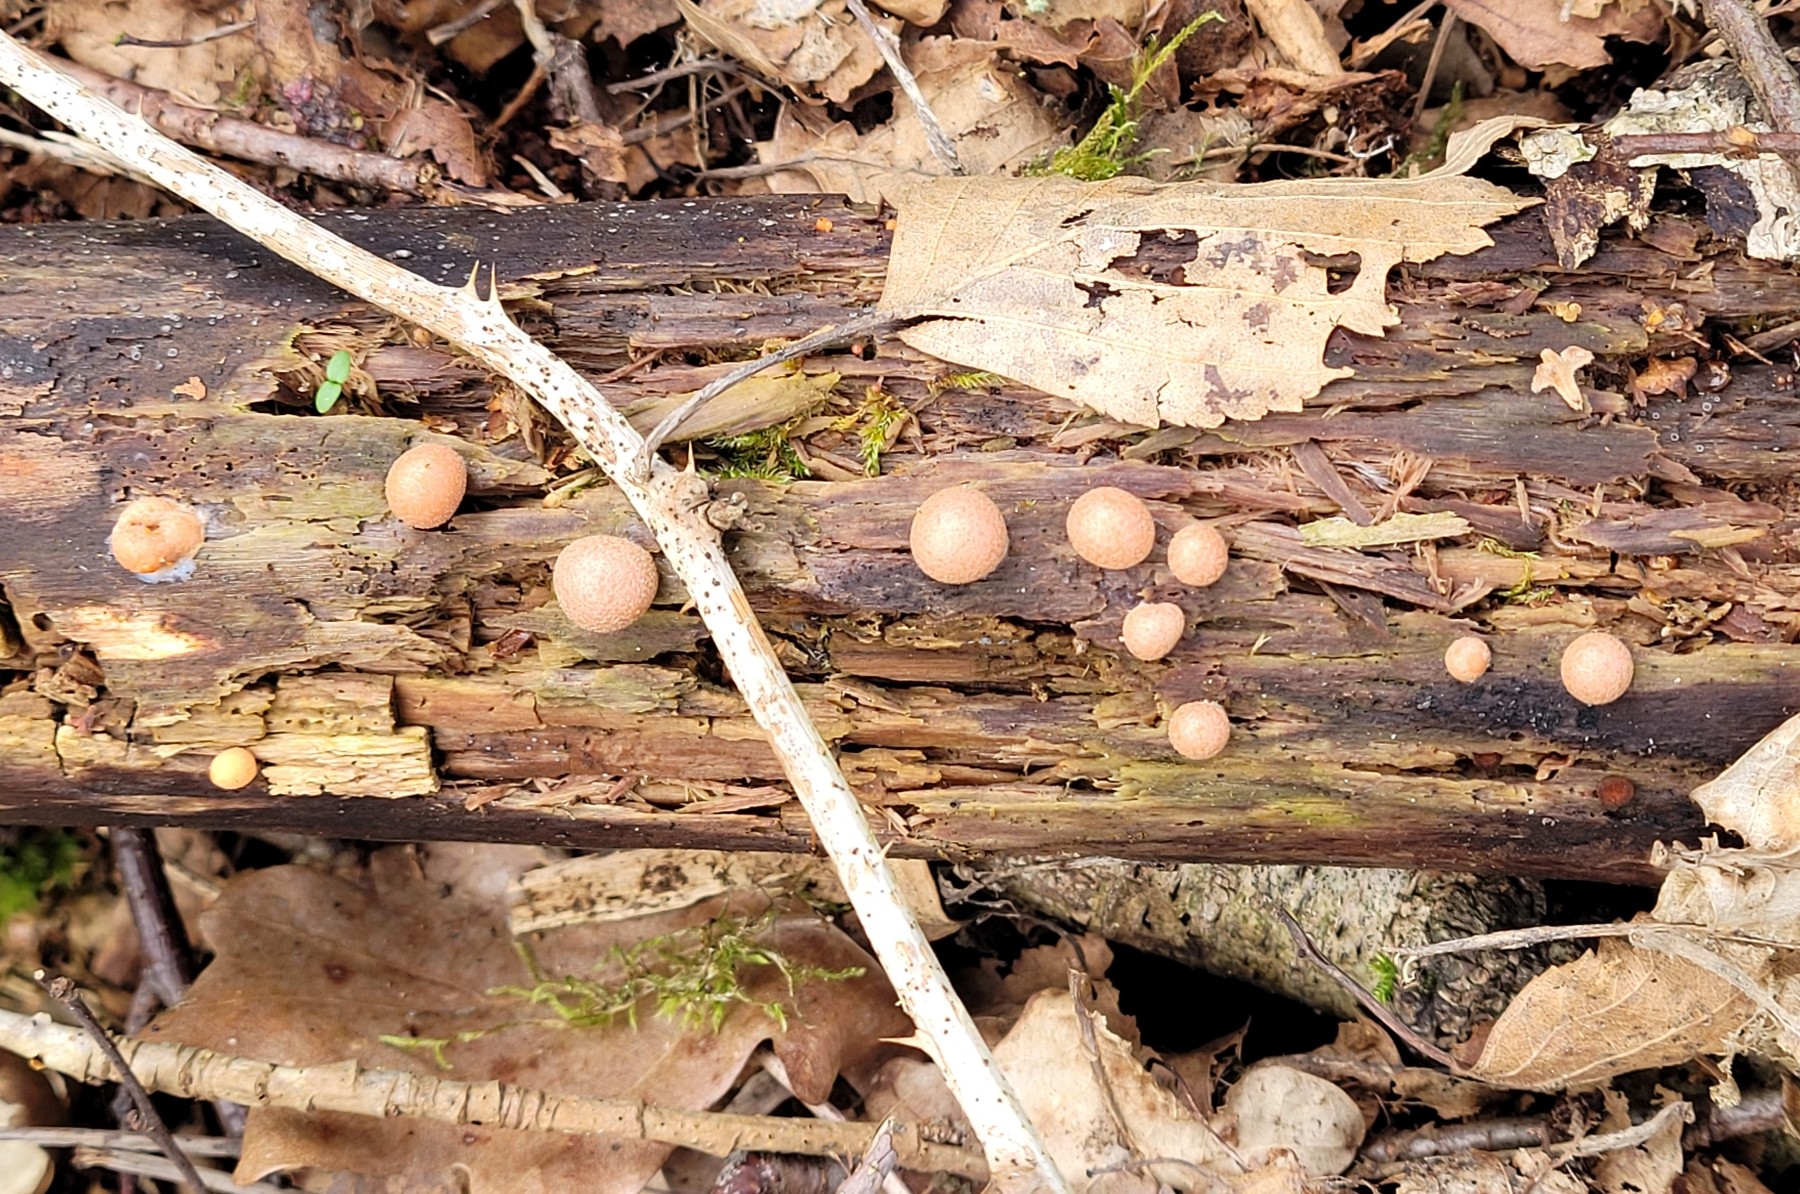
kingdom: Protozoa
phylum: Mycetozoa
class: Myxomycetes
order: Cribrariales
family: Tubiferaceae
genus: Lycogala
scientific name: Lycogala epidendrum
